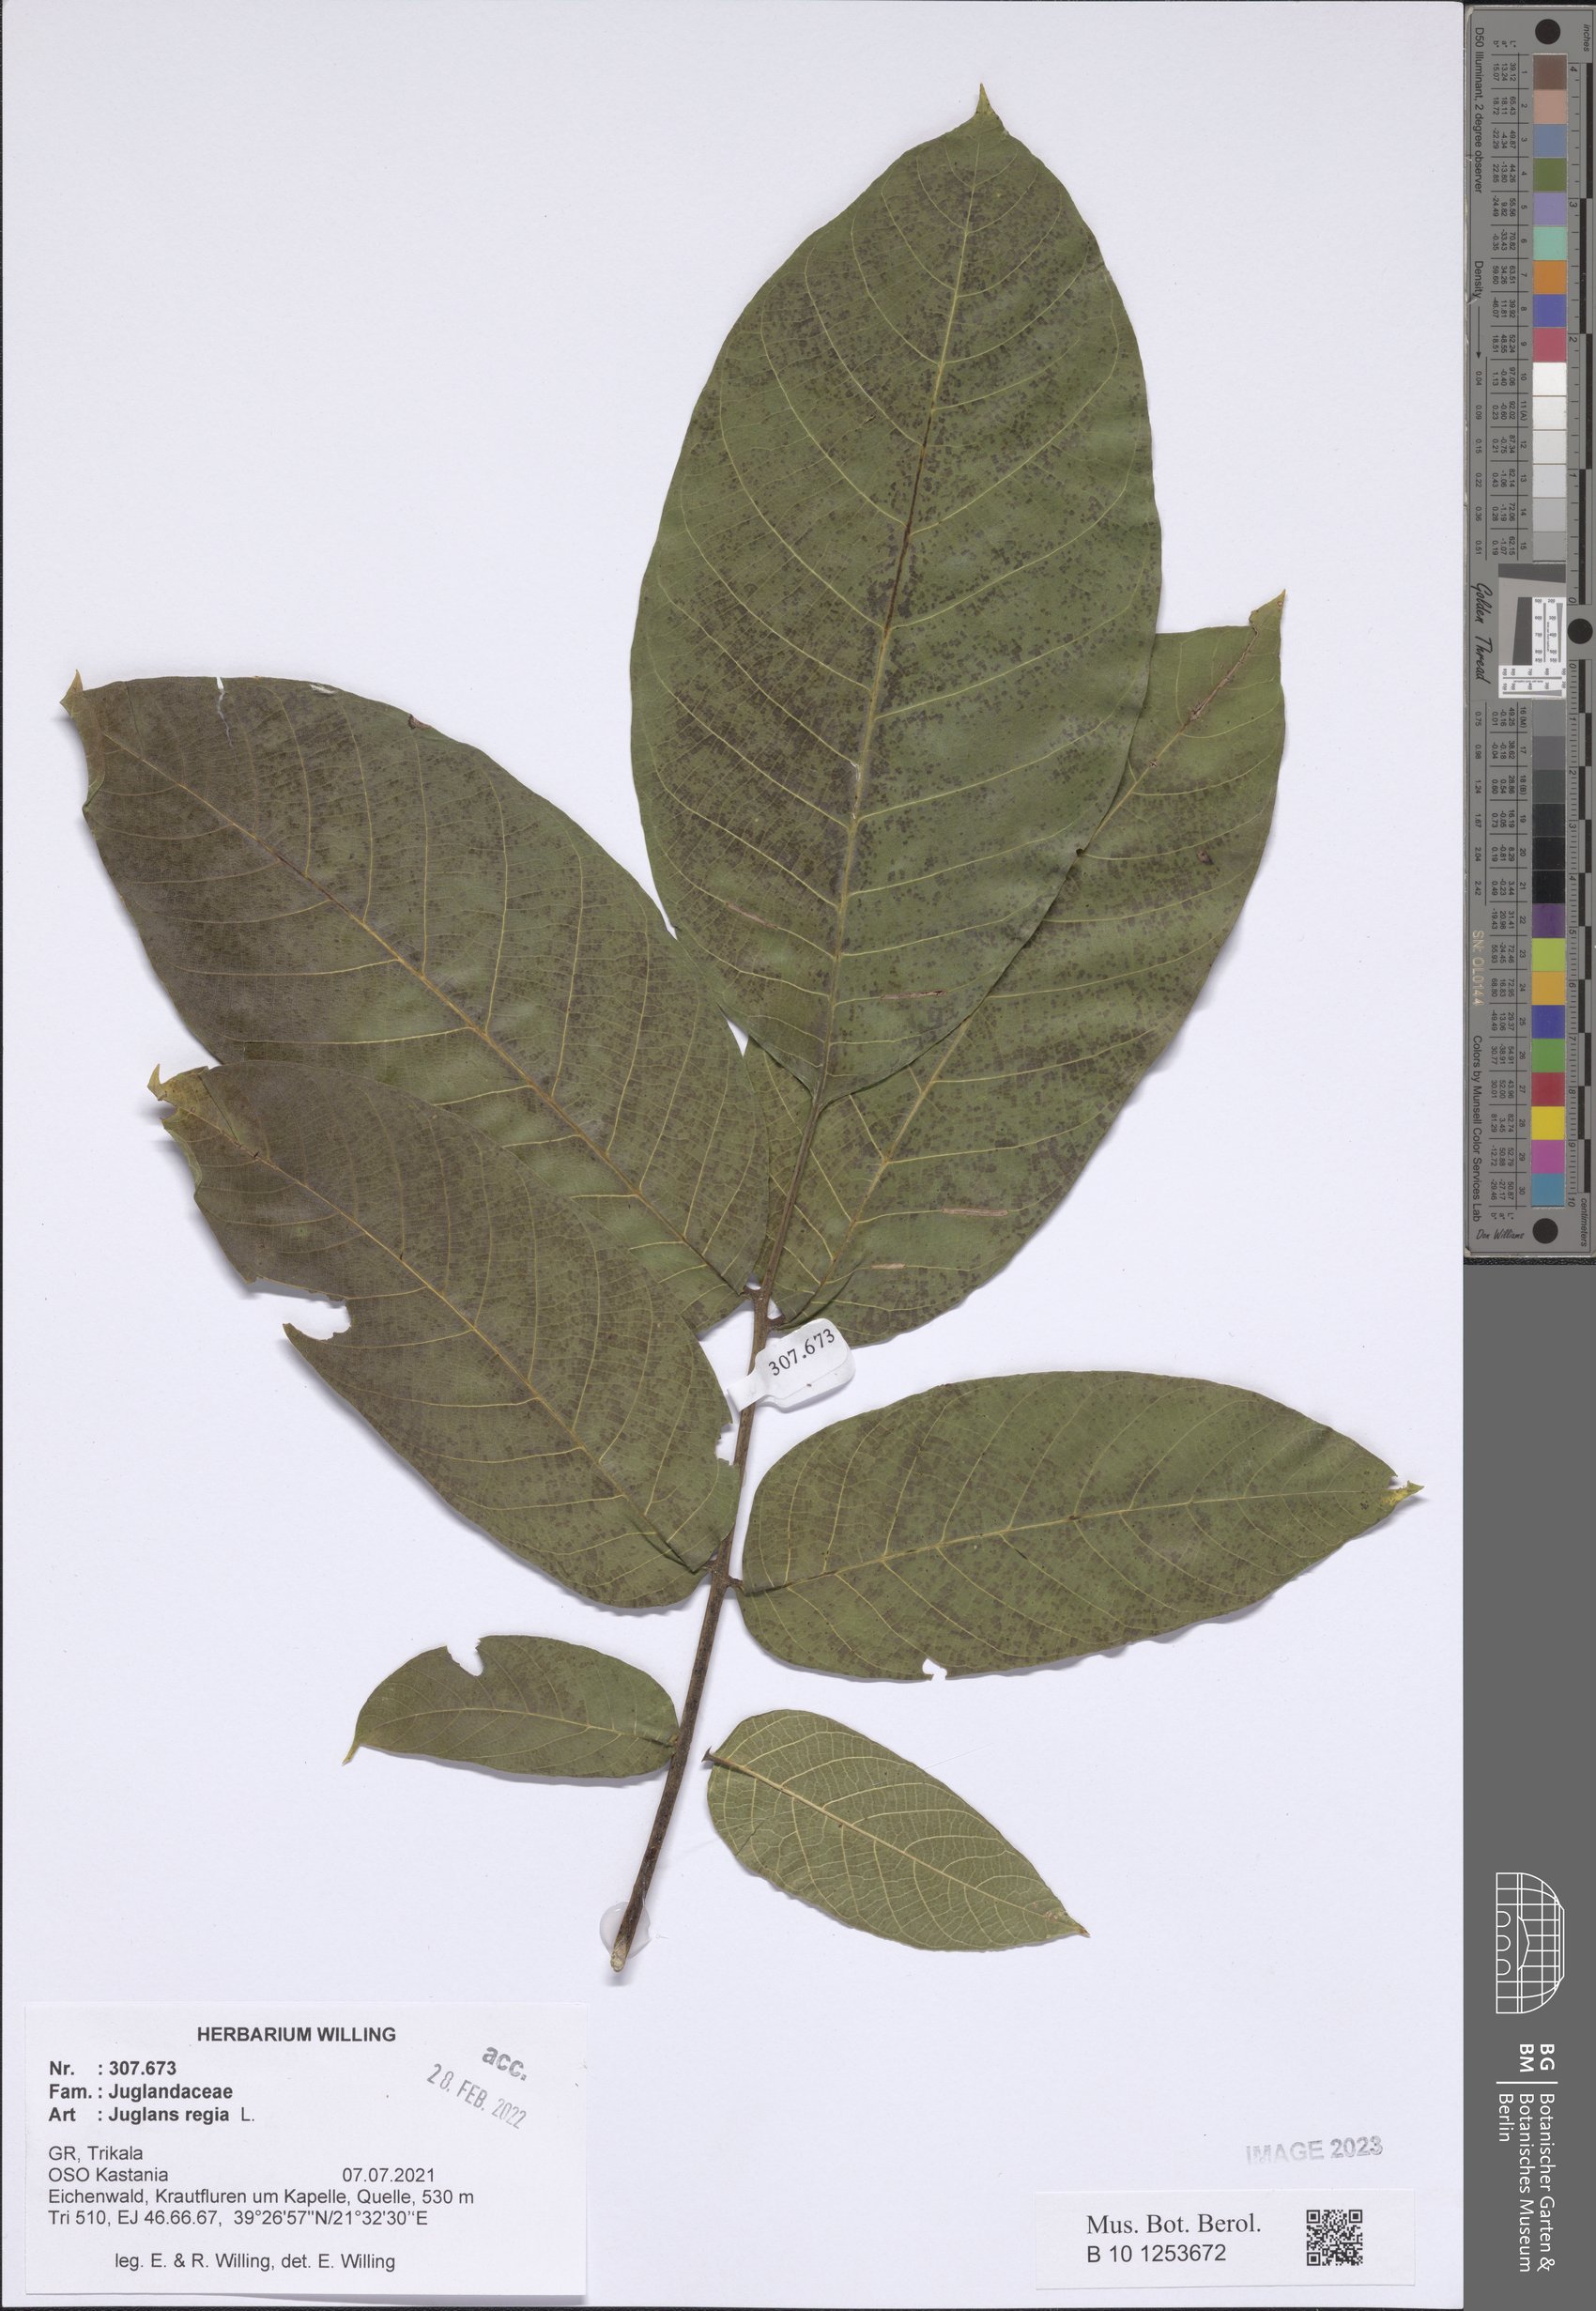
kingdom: Plantae
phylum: Tracheophyta
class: Magnoliopsida
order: Fagales
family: Juglandaceae
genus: Juglans
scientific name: Juglans regia
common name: Walnut
